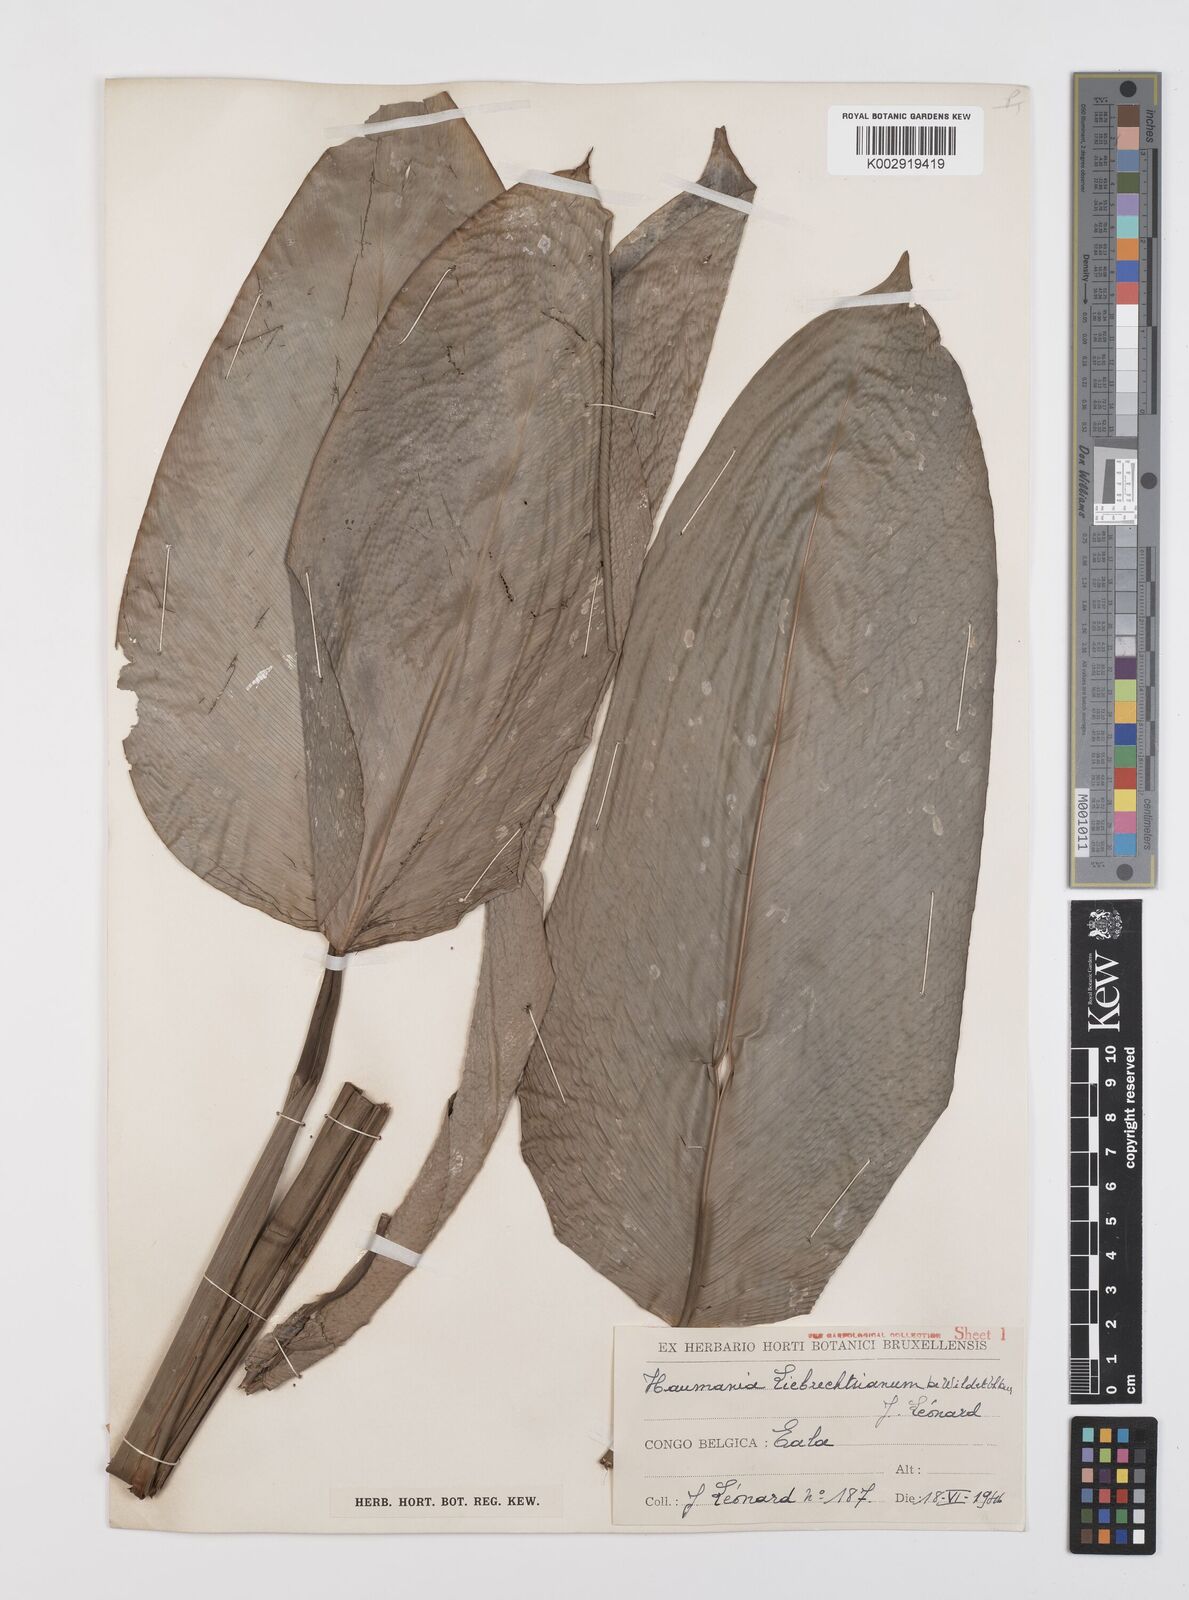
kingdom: Plantae
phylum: Tracheophyta
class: Liliopsida
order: Zingiberales
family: Marantaceae
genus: Haumania
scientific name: Haumania liebrechtsiana
